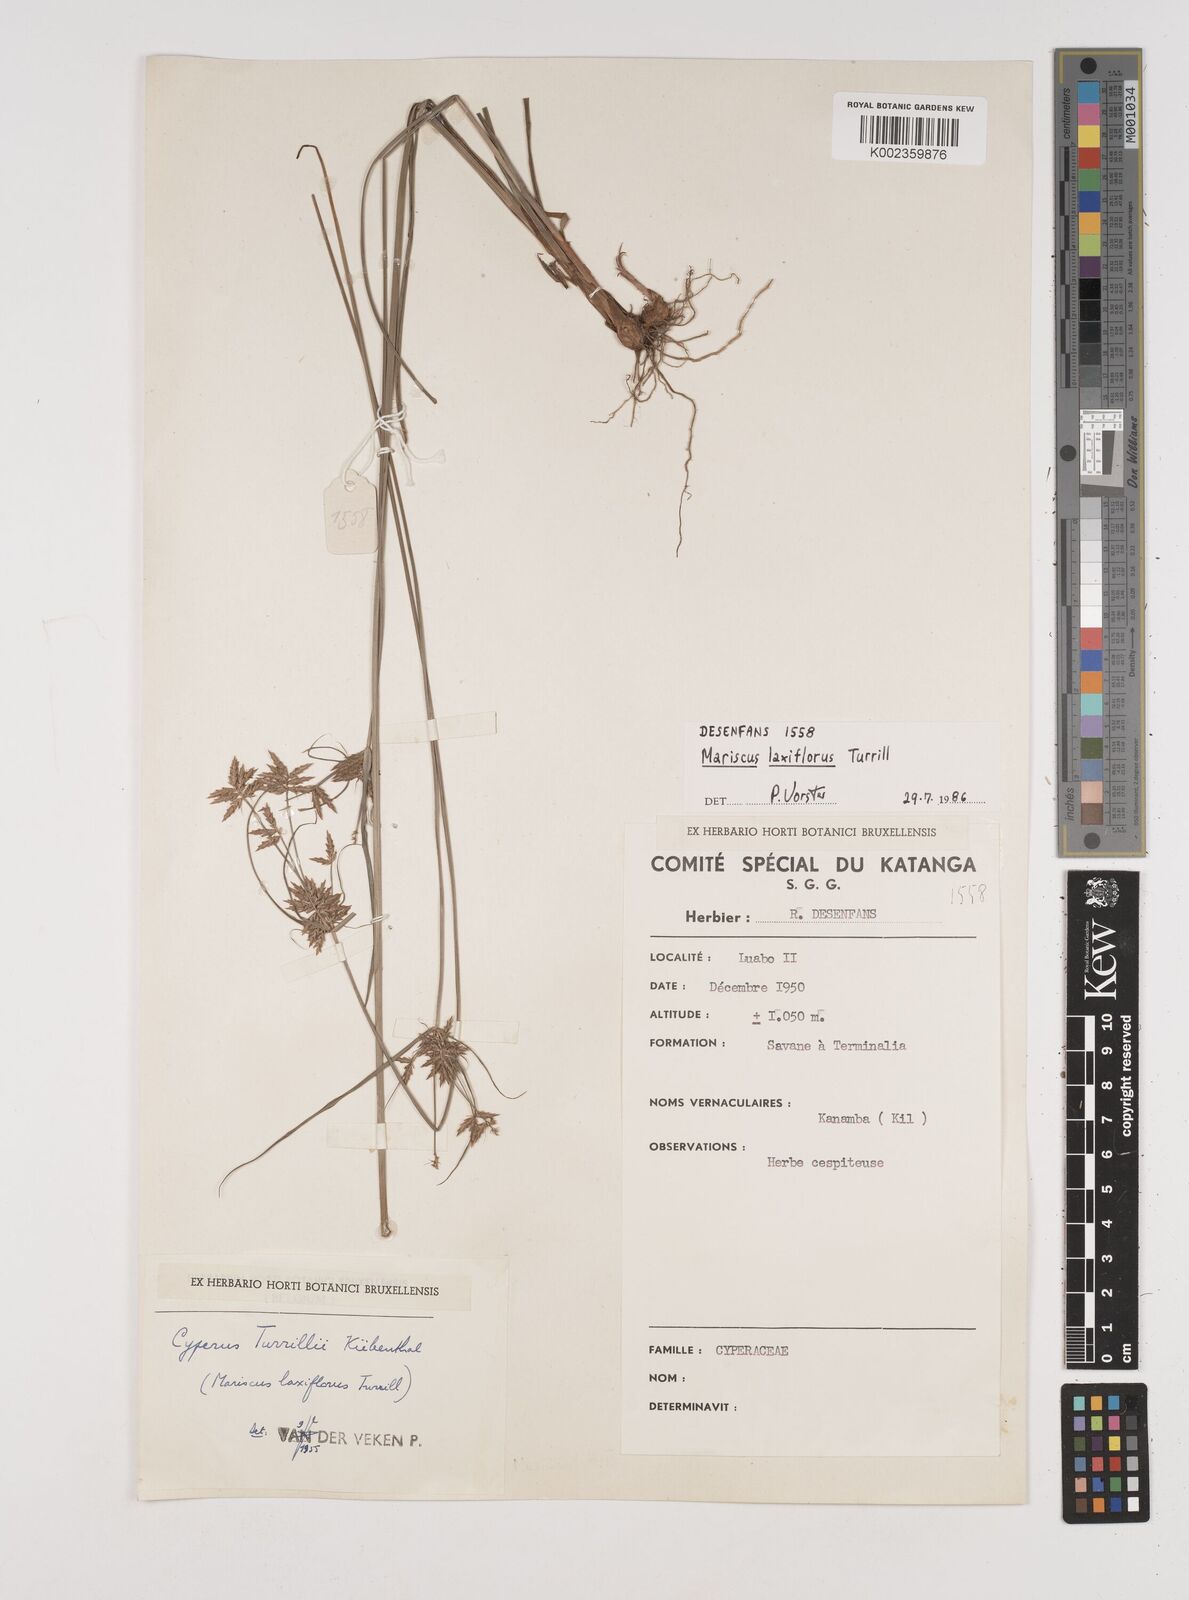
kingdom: Plantae
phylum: Tracheophyta
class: Liliopsida
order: Poales
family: Cyperaceae
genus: Cyperus
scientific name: Cyperus turrillii
